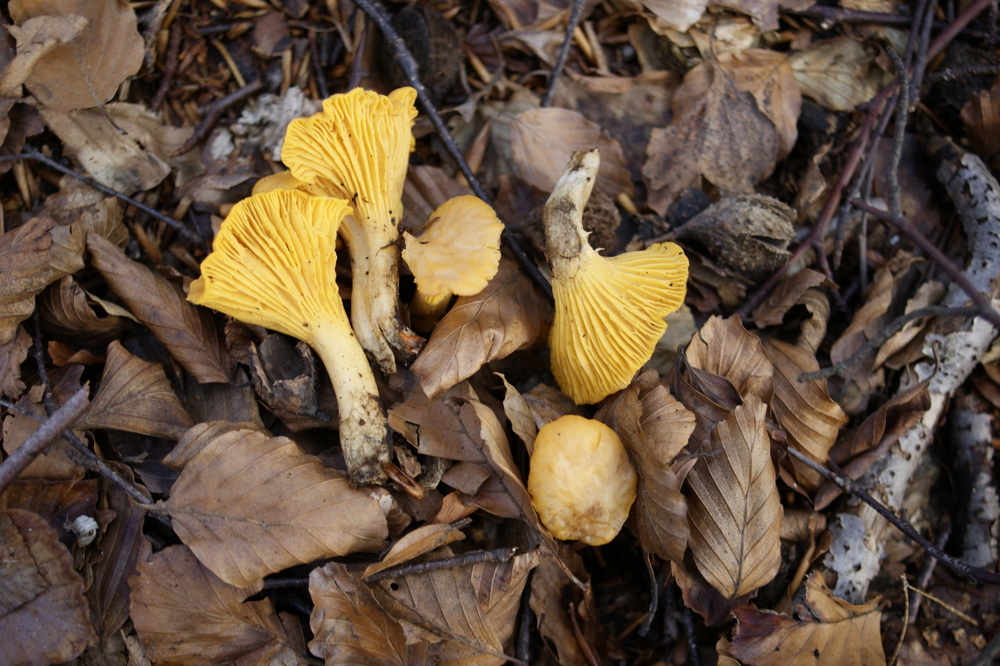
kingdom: Fungi
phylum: Basidiomycota
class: Agaricomycetes
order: Cantharellales
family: Hydnaceae
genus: Cantharellus
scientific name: Cantharellus pallens
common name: bleg kantarel
